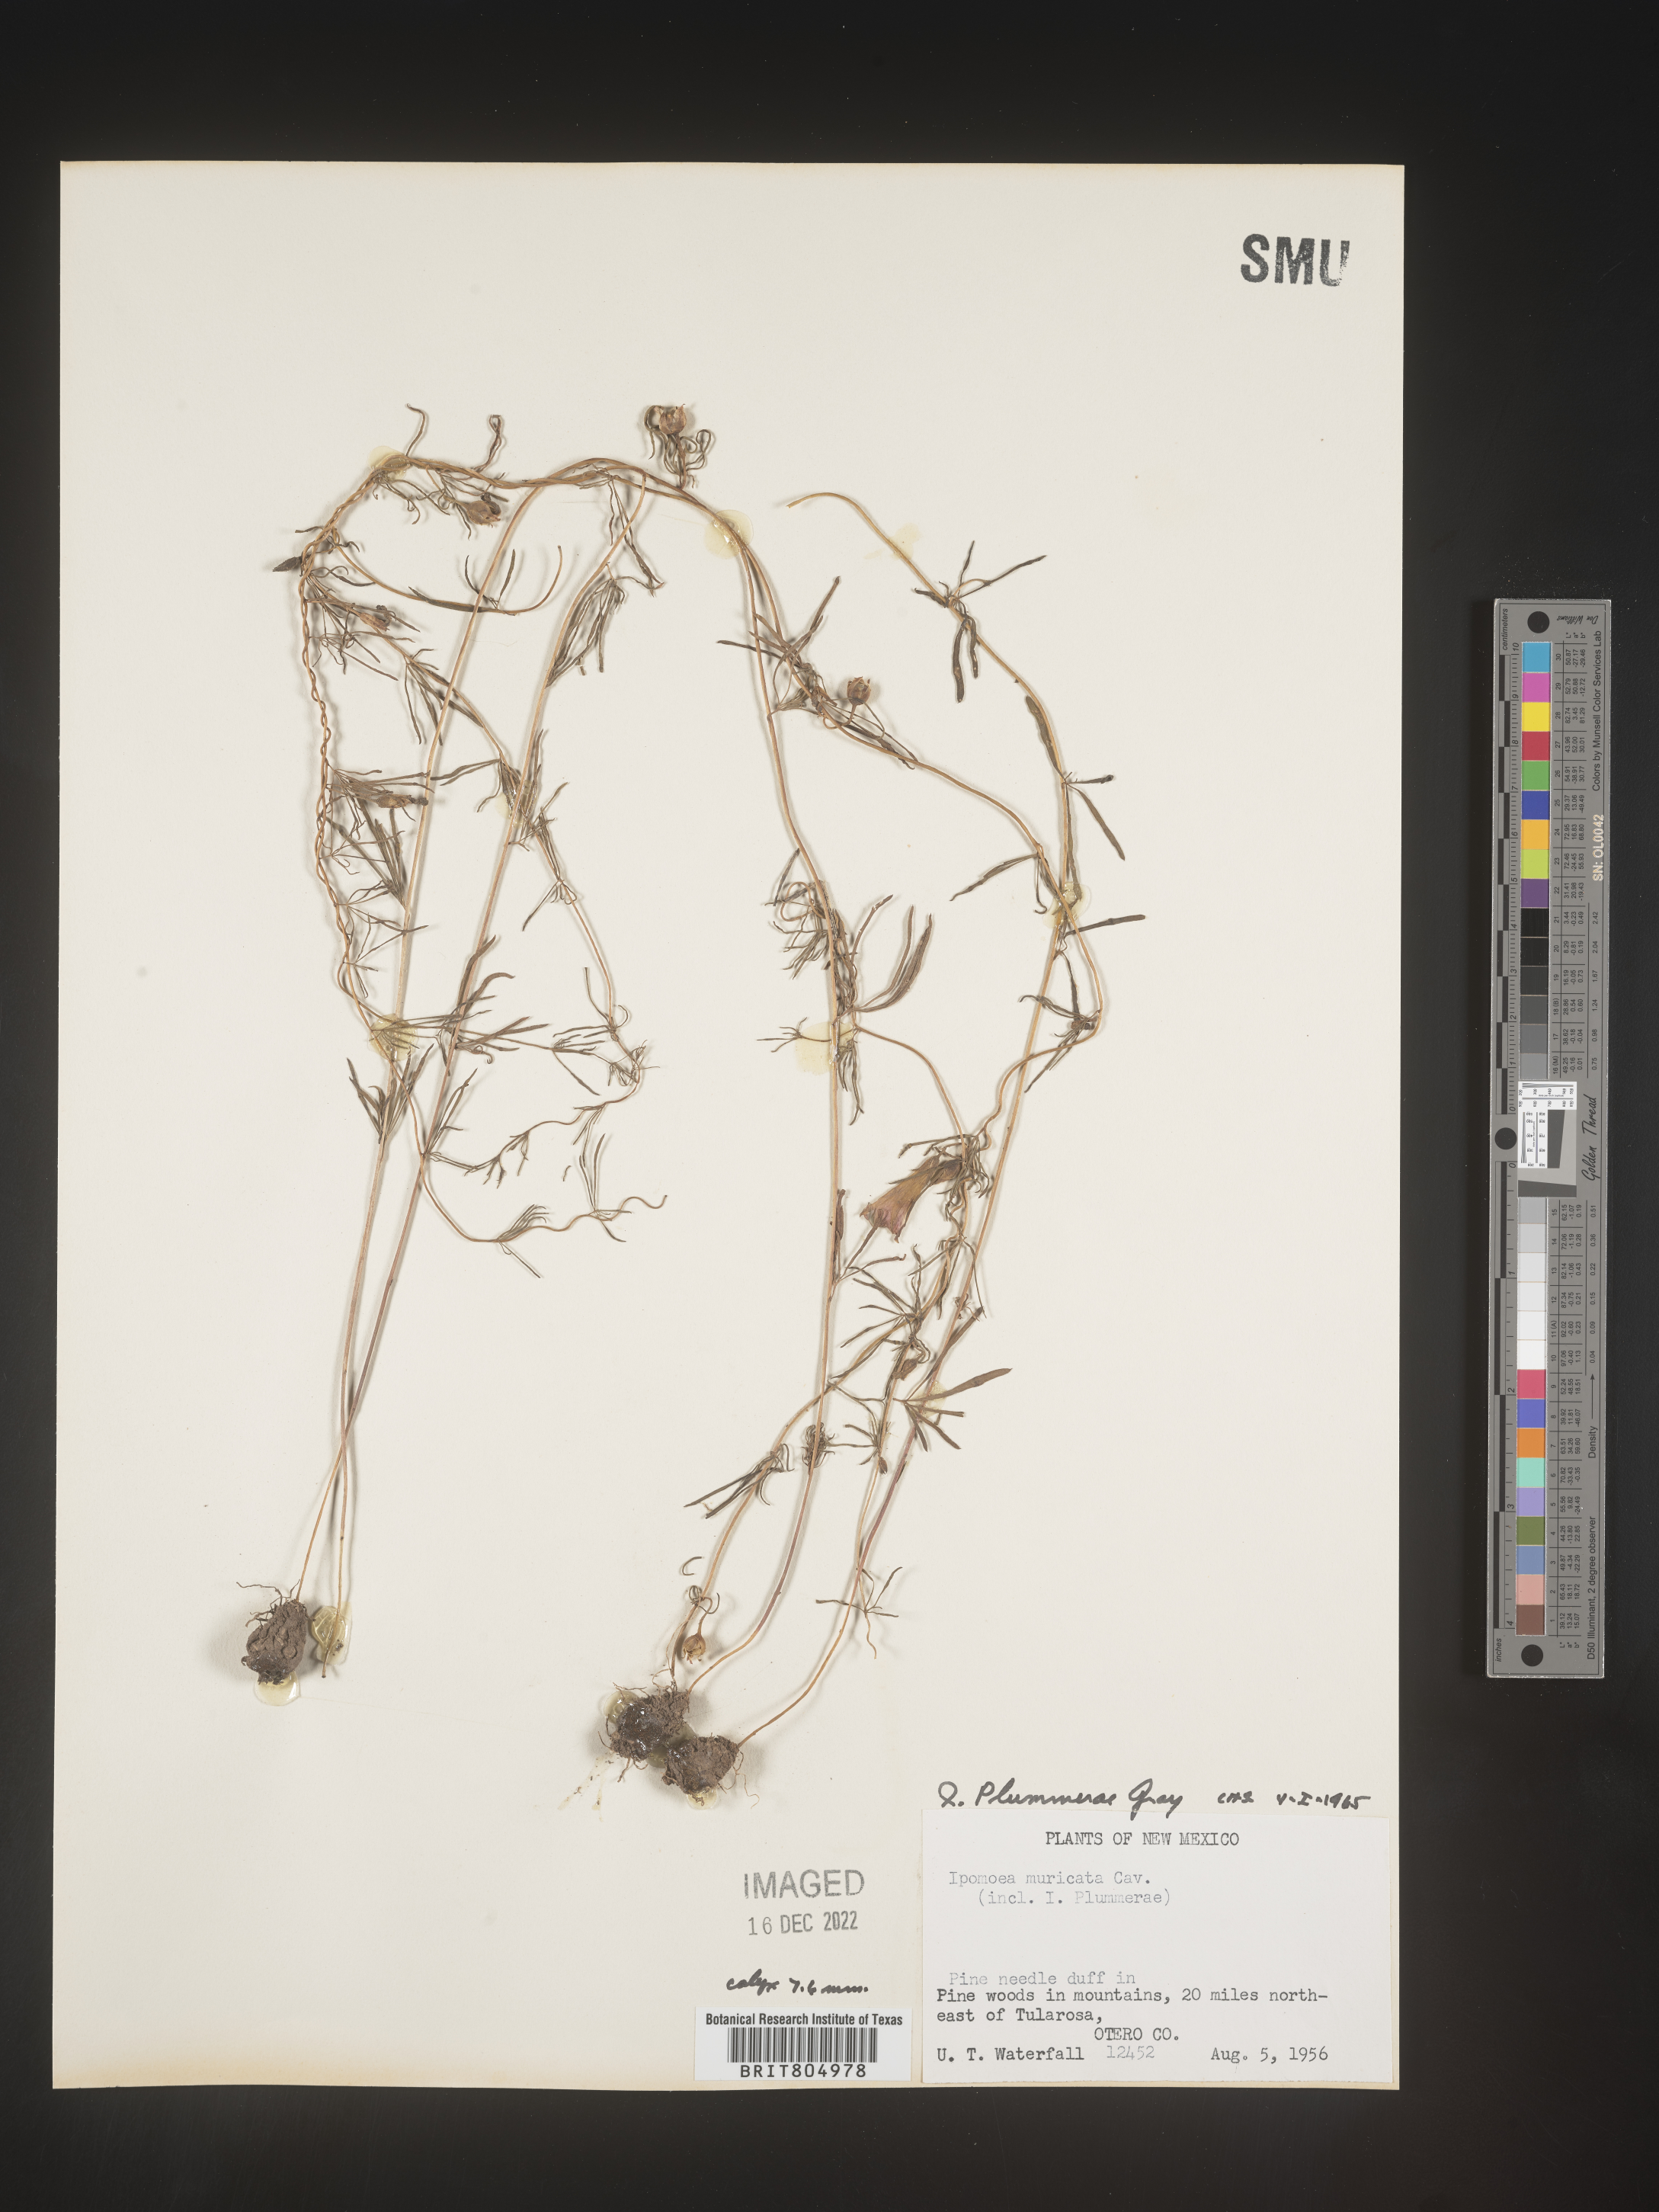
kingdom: Plantae
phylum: Tracheophyta
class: Magnoliopsida
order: Solanales
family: Convolvulaceae
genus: Ipomoea
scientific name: Ipomoea plummerae
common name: Plummer's morning-glory
